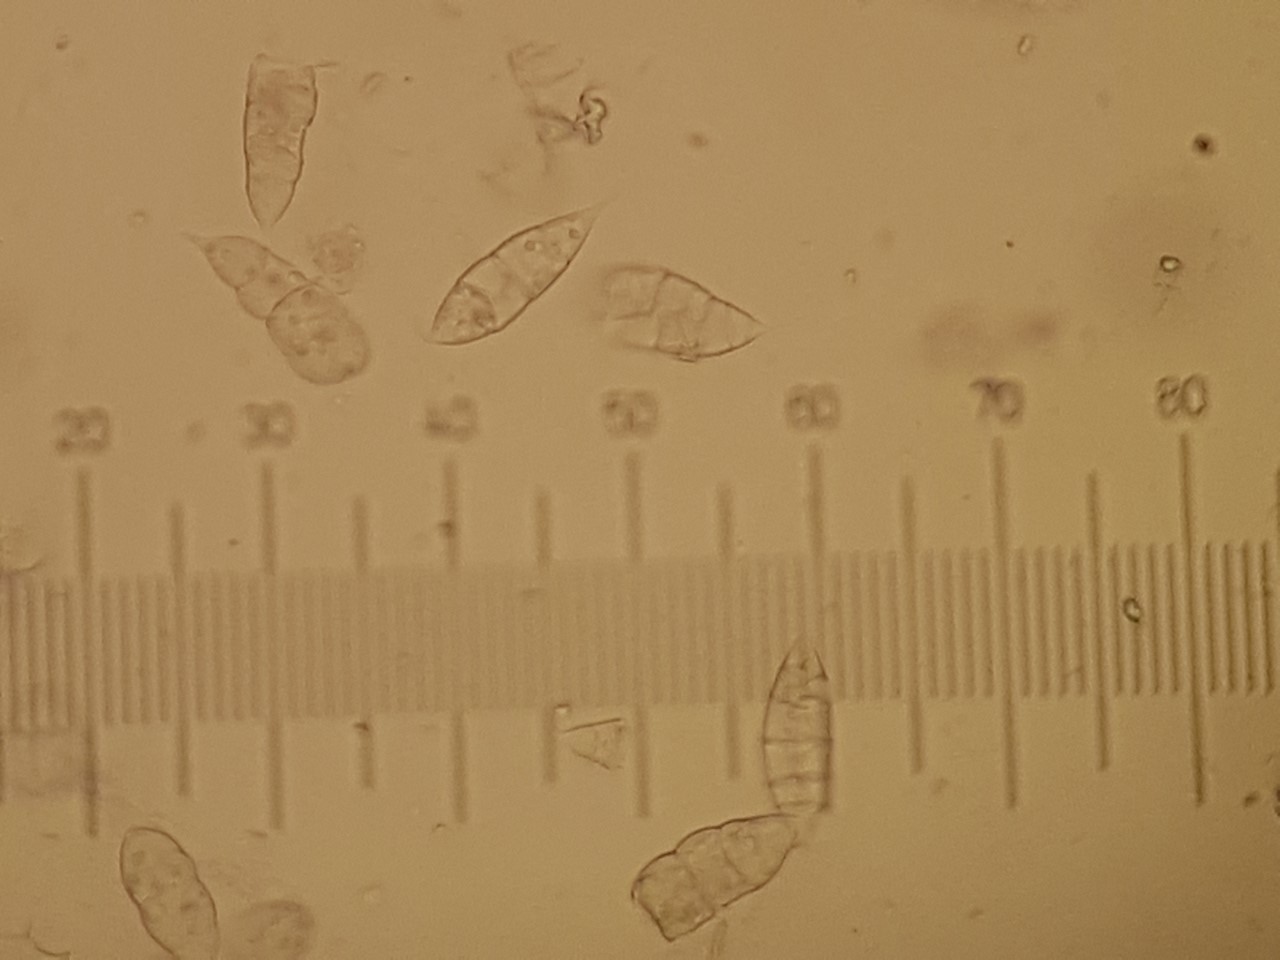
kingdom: Fungi
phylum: Ascomycota
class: Sordariomycetes
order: Hypocreales
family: Bionectriaceae
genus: Paranectria
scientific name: Paranectria oropensis
